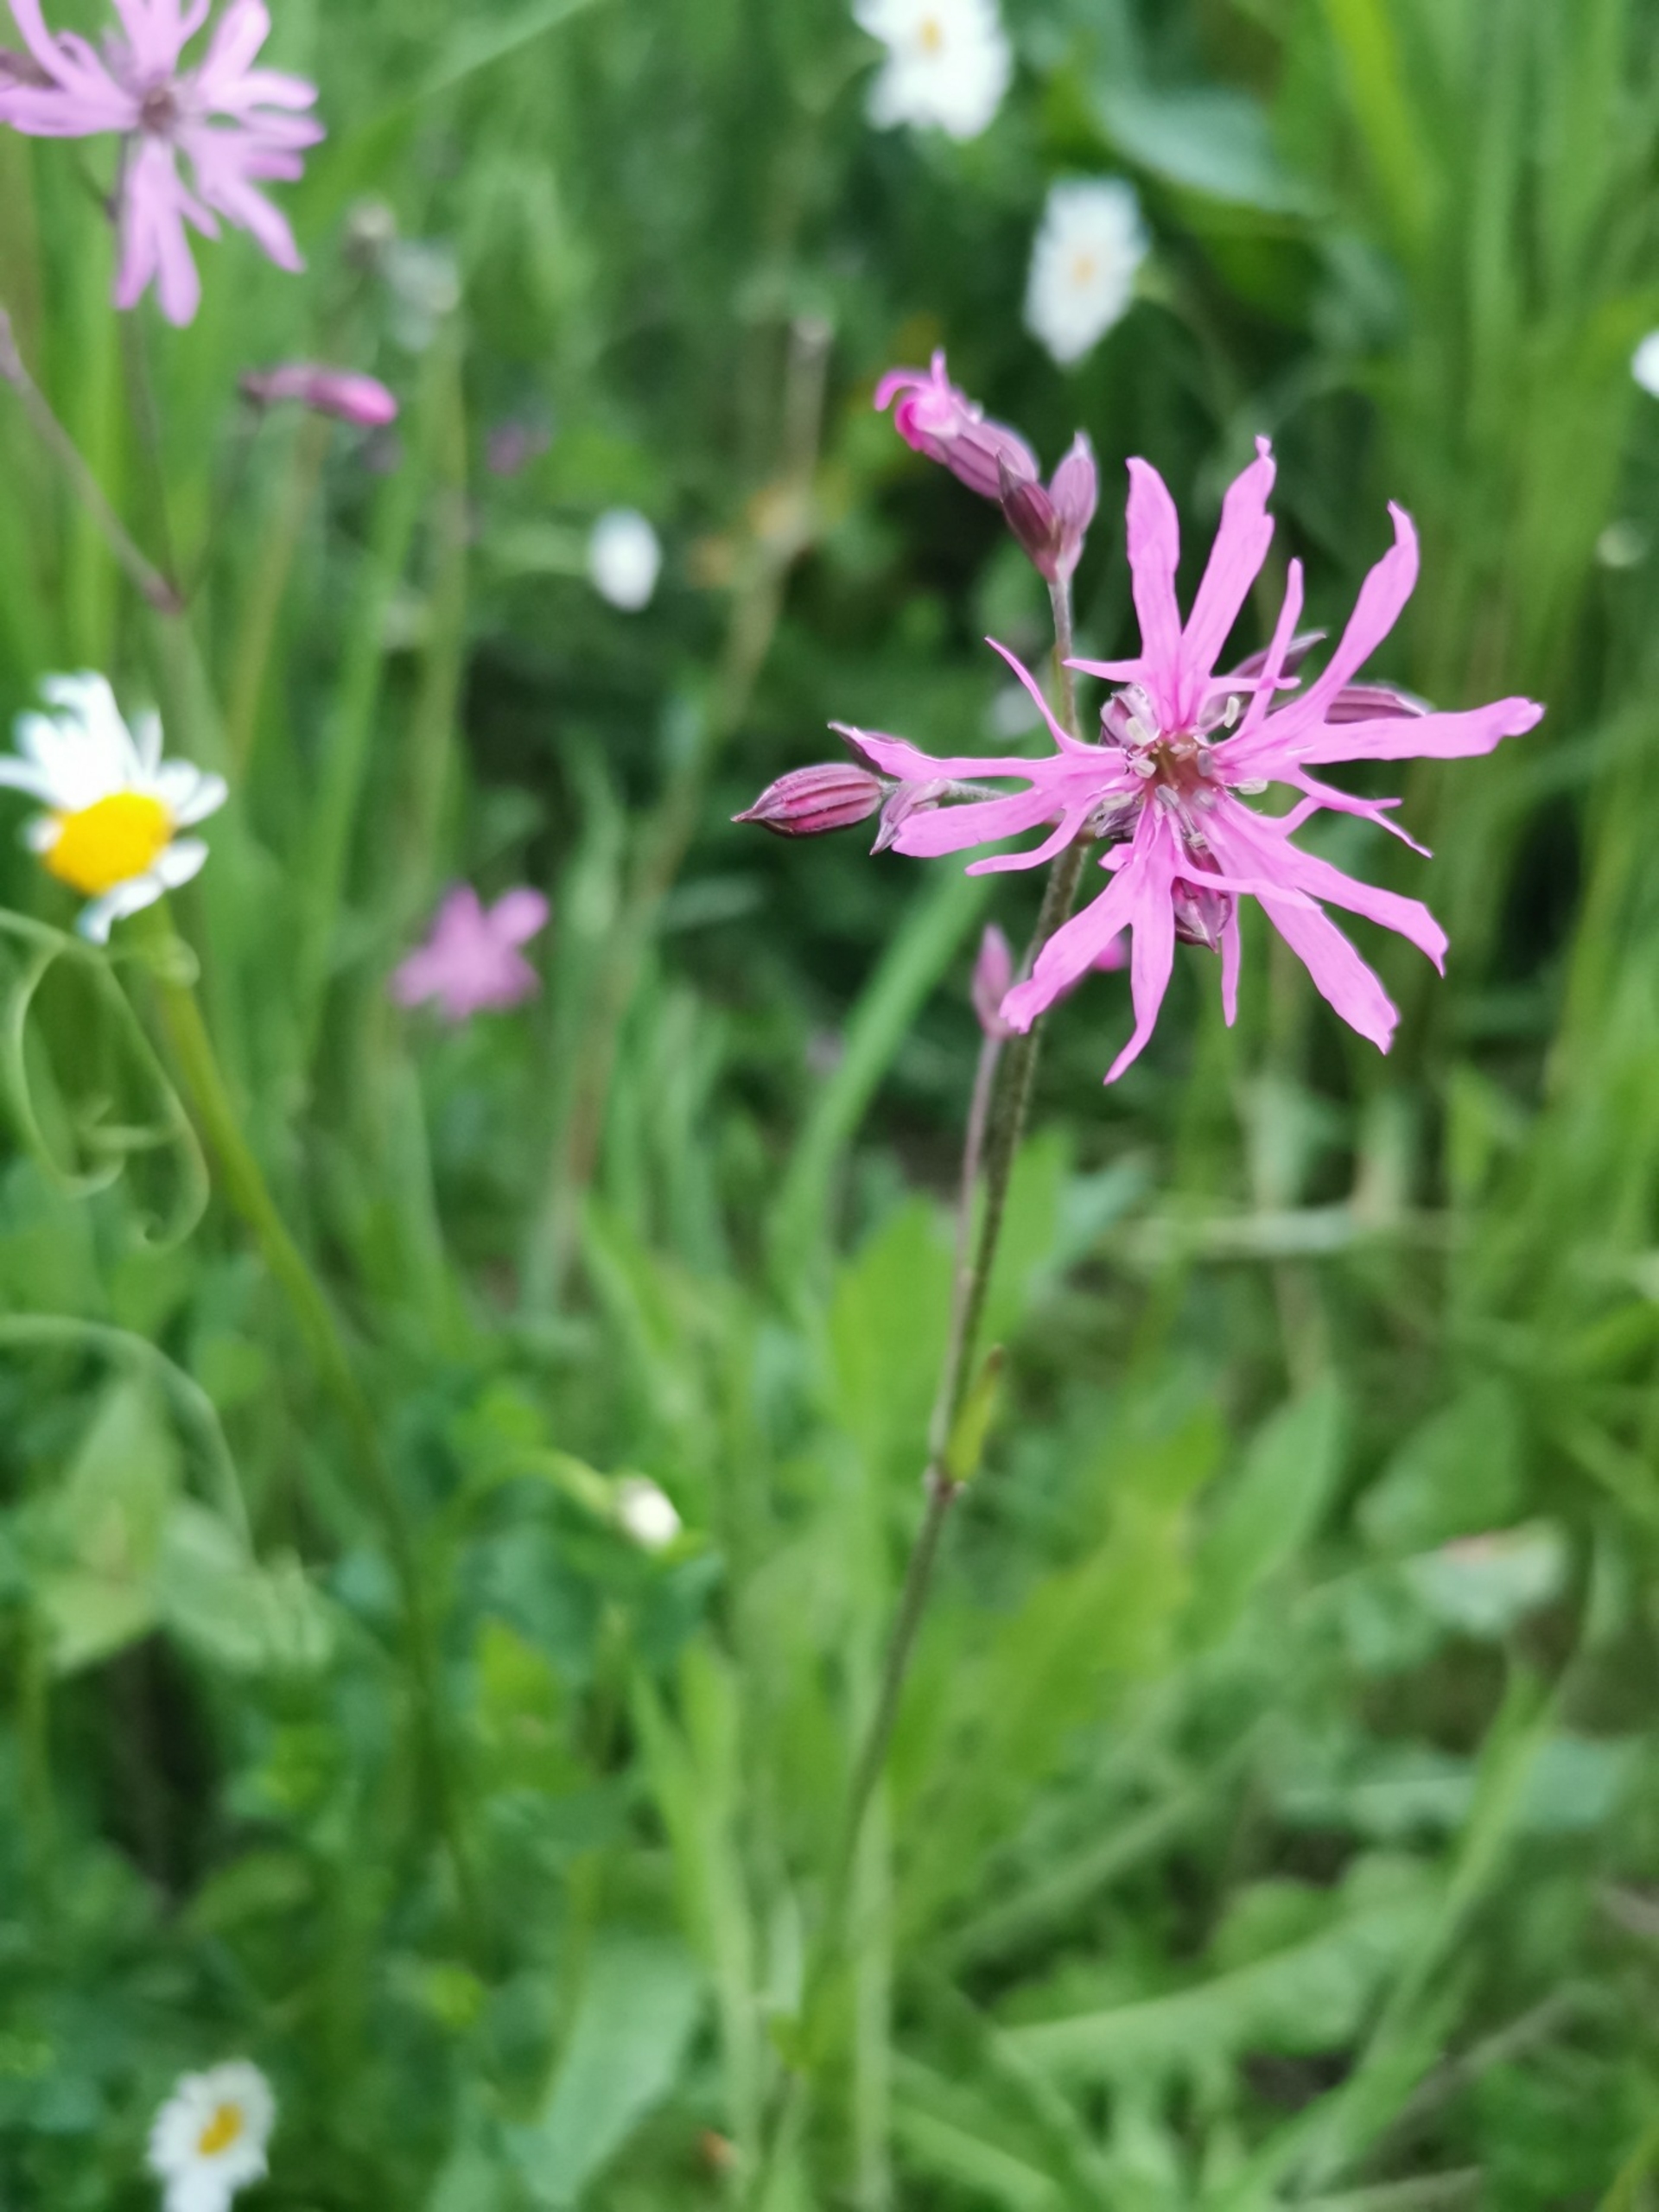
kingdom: Plantae
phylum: Tracheophyta
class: Magnoliopsida
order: Caryophyllales
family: Caryophyllaceae
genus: Silene
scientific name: Silene flos-cuculi
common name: Trævlekrone
